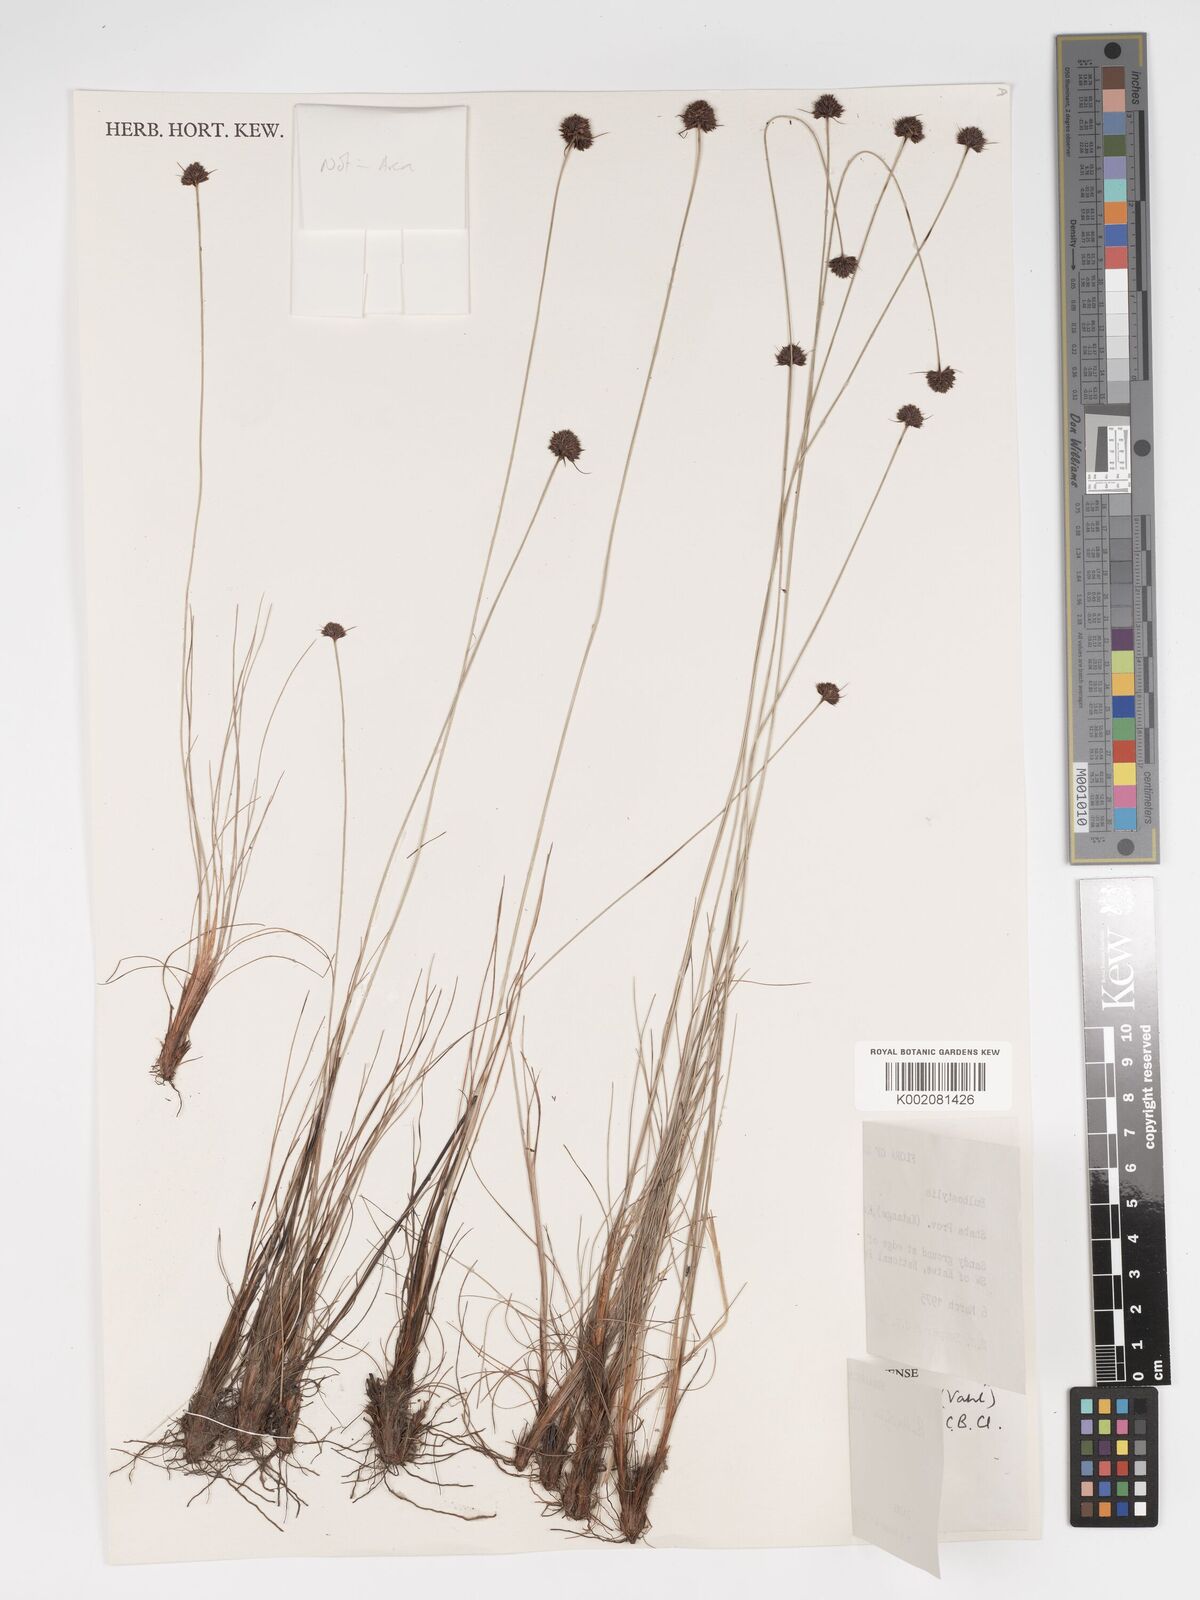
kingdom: Plantae
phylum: Tracheophyta
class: Liliopsida
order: Poales
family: Cyperaceae
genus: Bulbostylis
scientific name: Bulbostylis filamentosa
